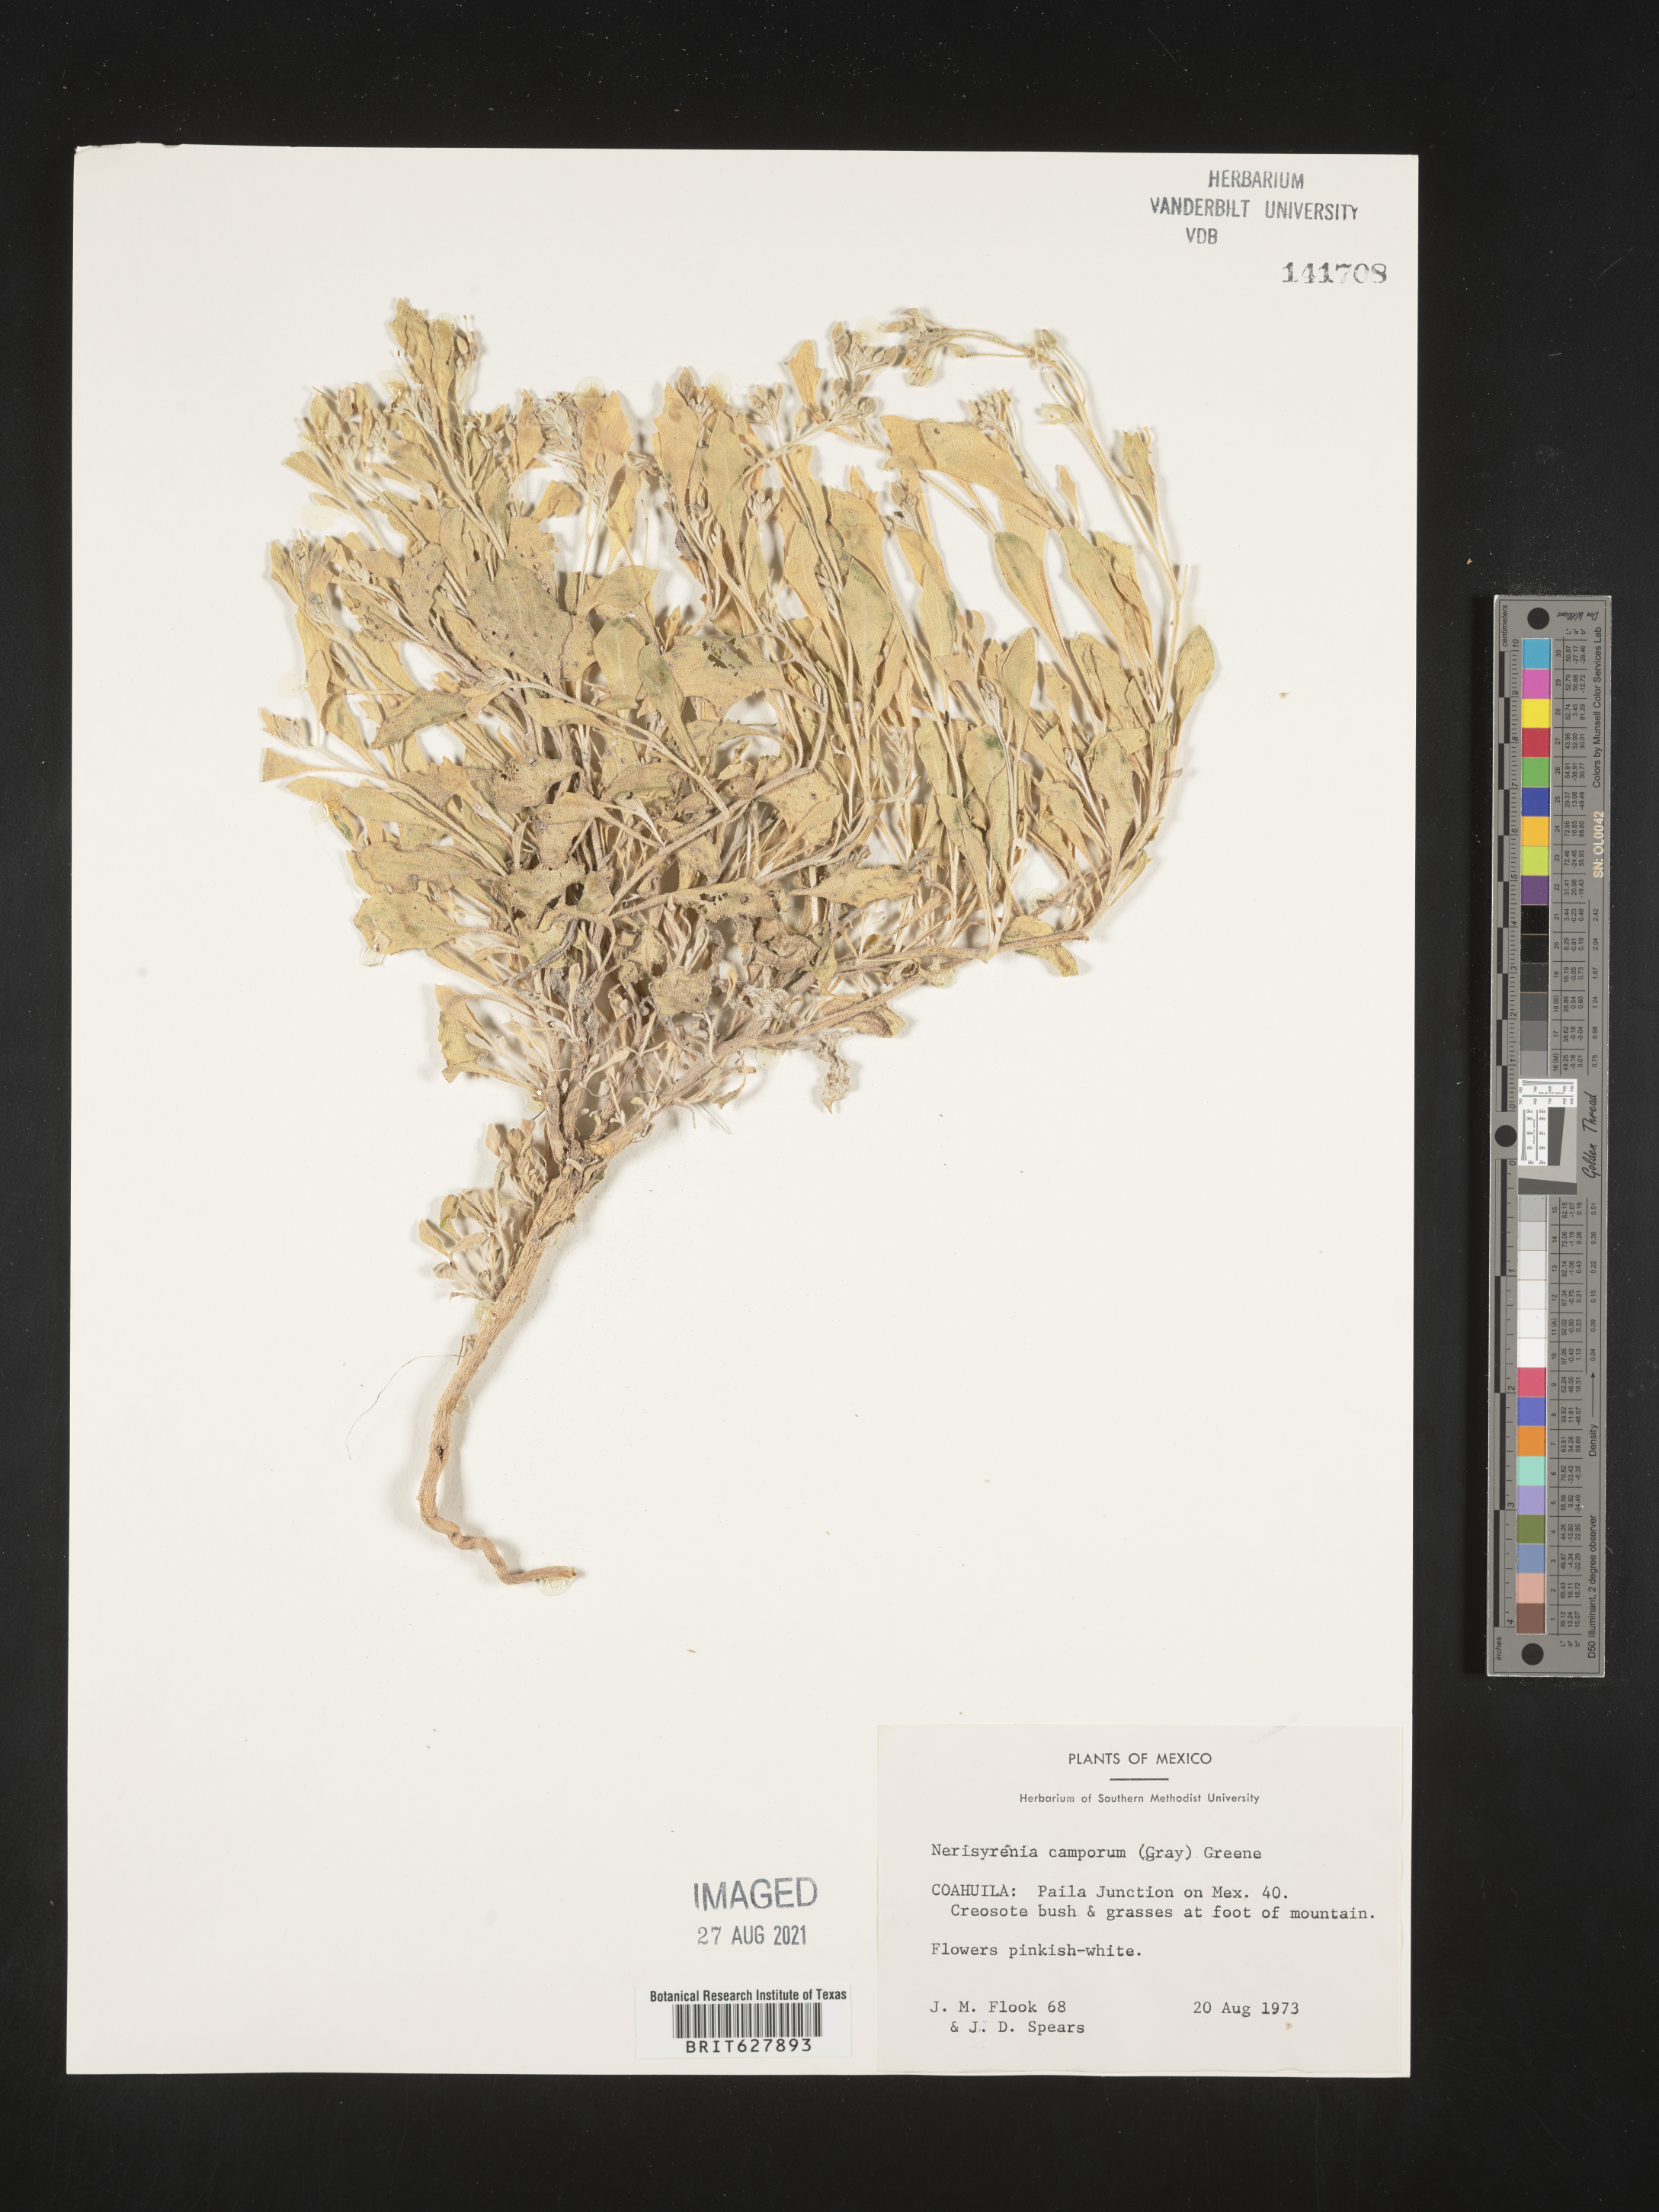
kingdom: Plantae
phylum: Tracheophyta
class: Magnoliopsida
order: Brassicales
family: Brassicaceae
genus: Nerisyrenia
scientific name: Nerisyrenia
